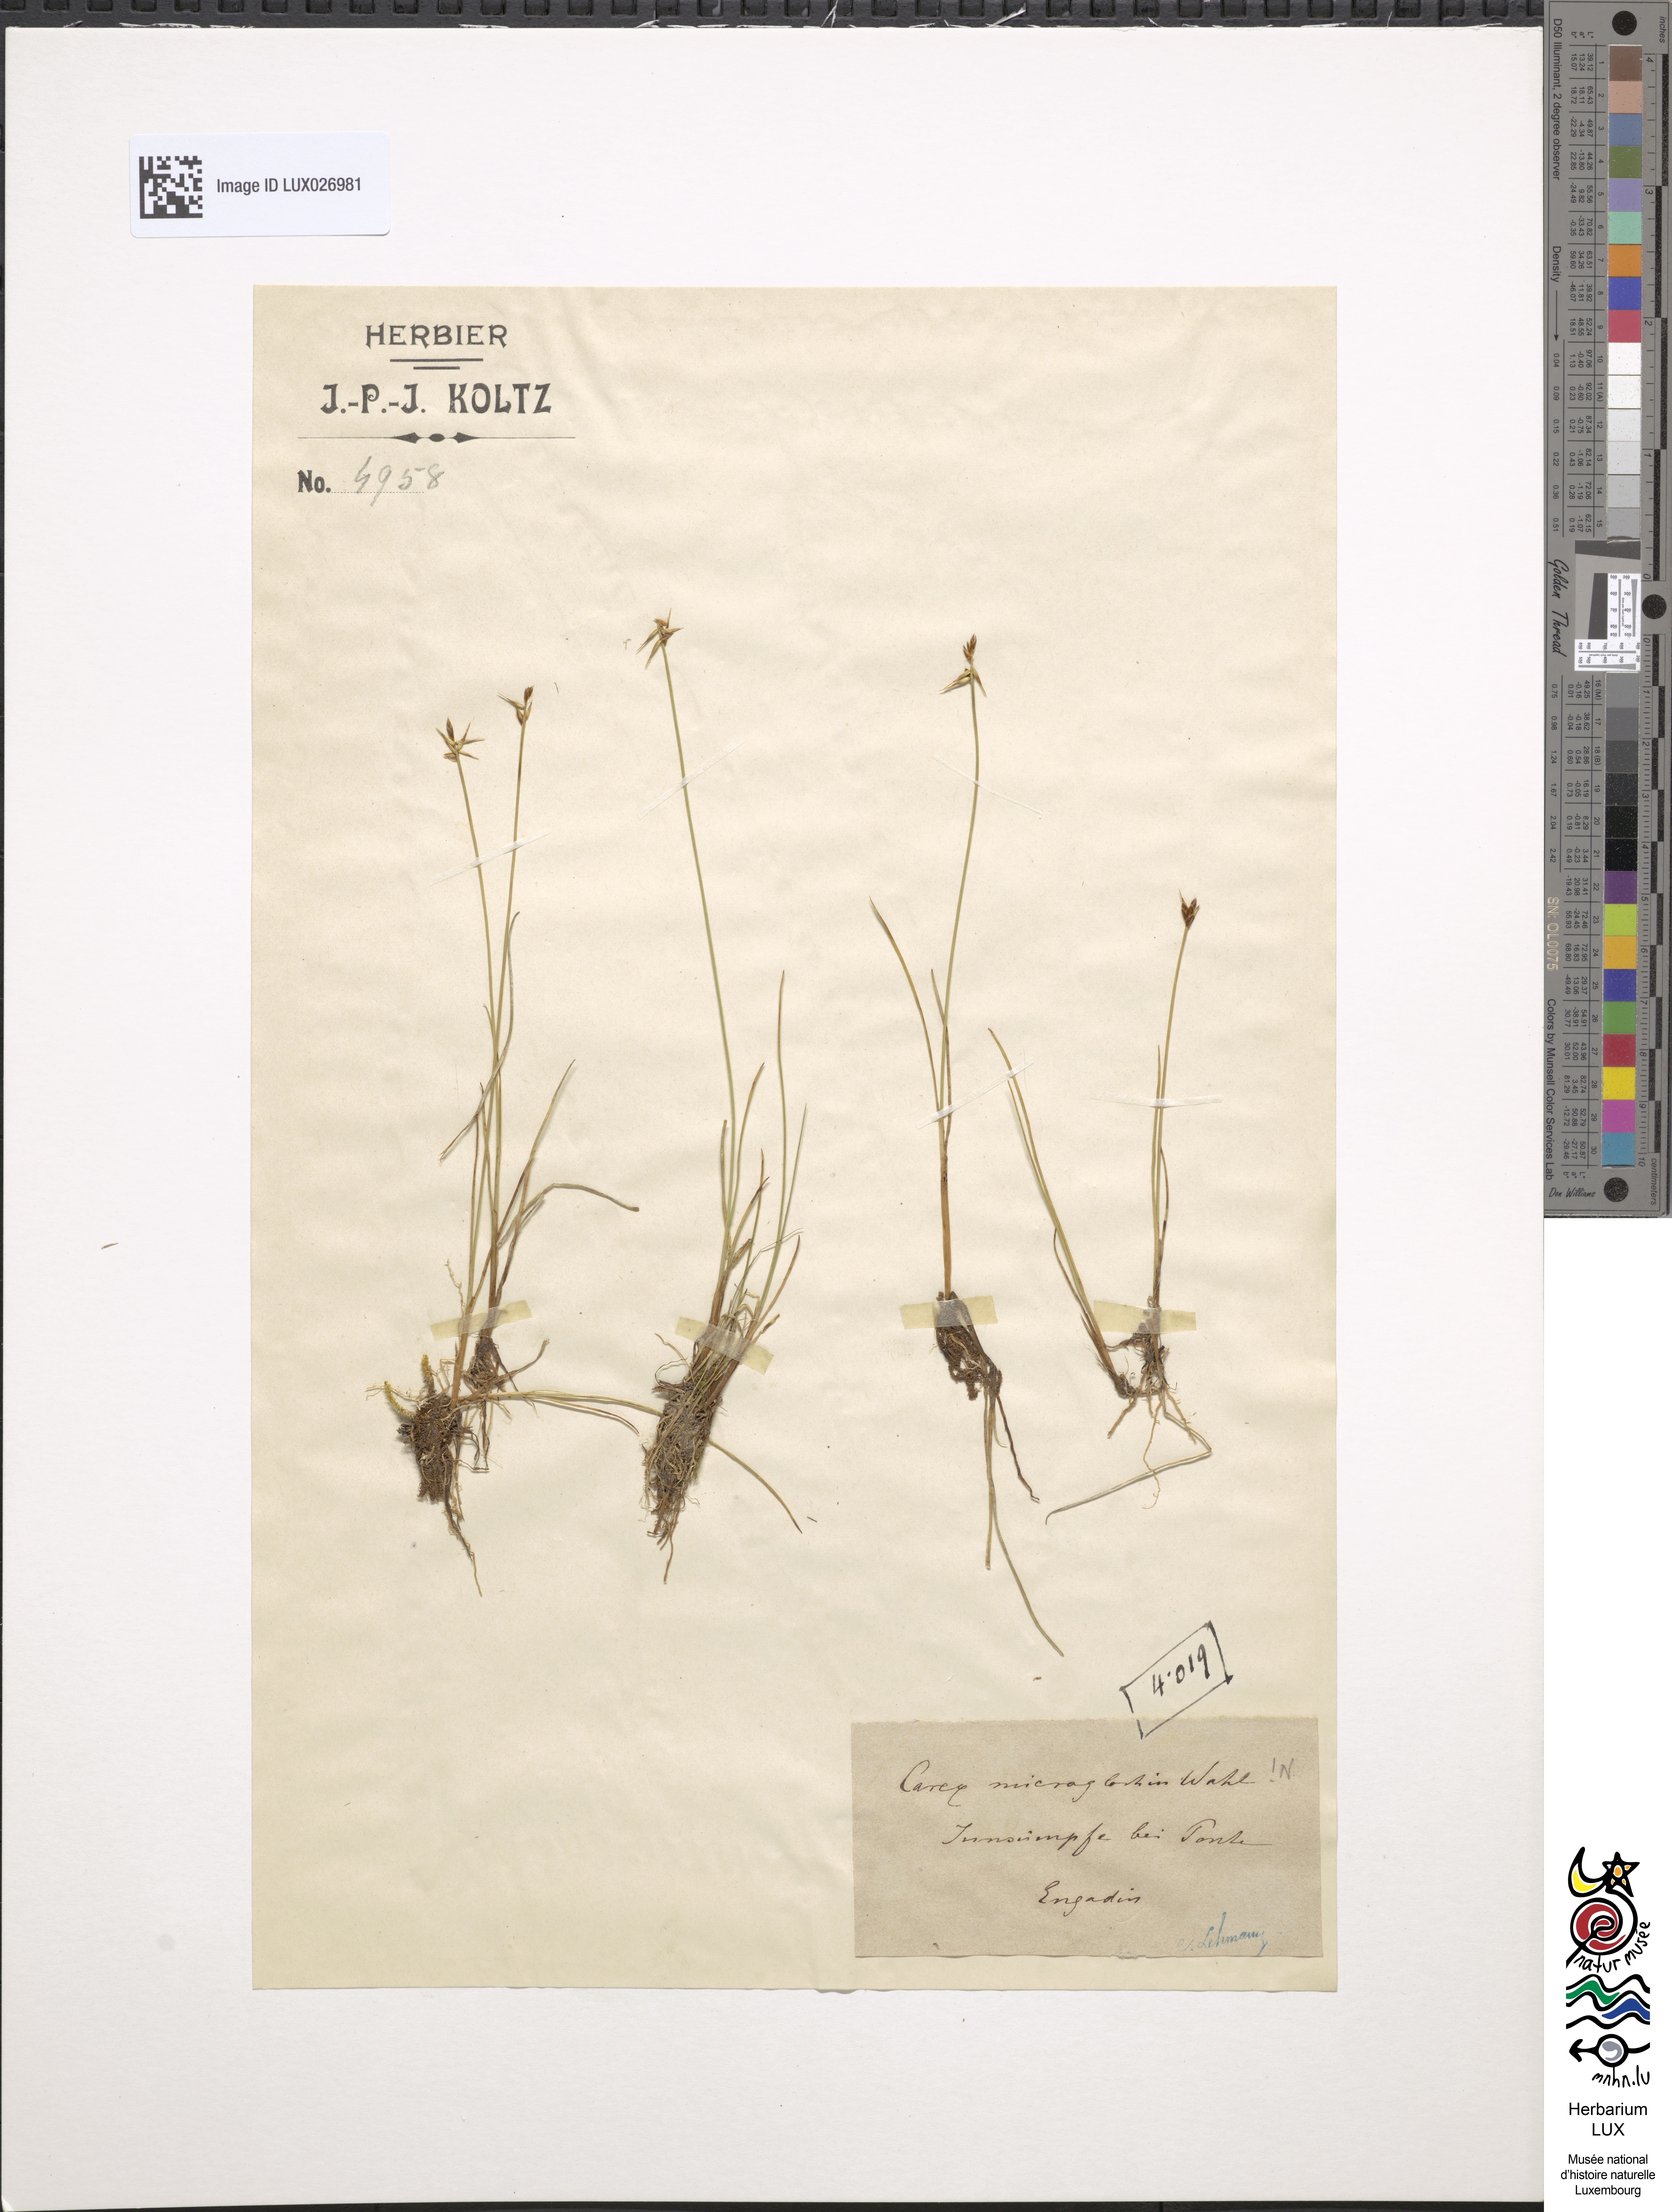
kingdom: Plantae
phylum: Tracheophyta
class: Liliopsida
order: Poales
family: Cyperaceae
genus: Carex
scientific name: Carex microglochin
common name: Bristle sedge
